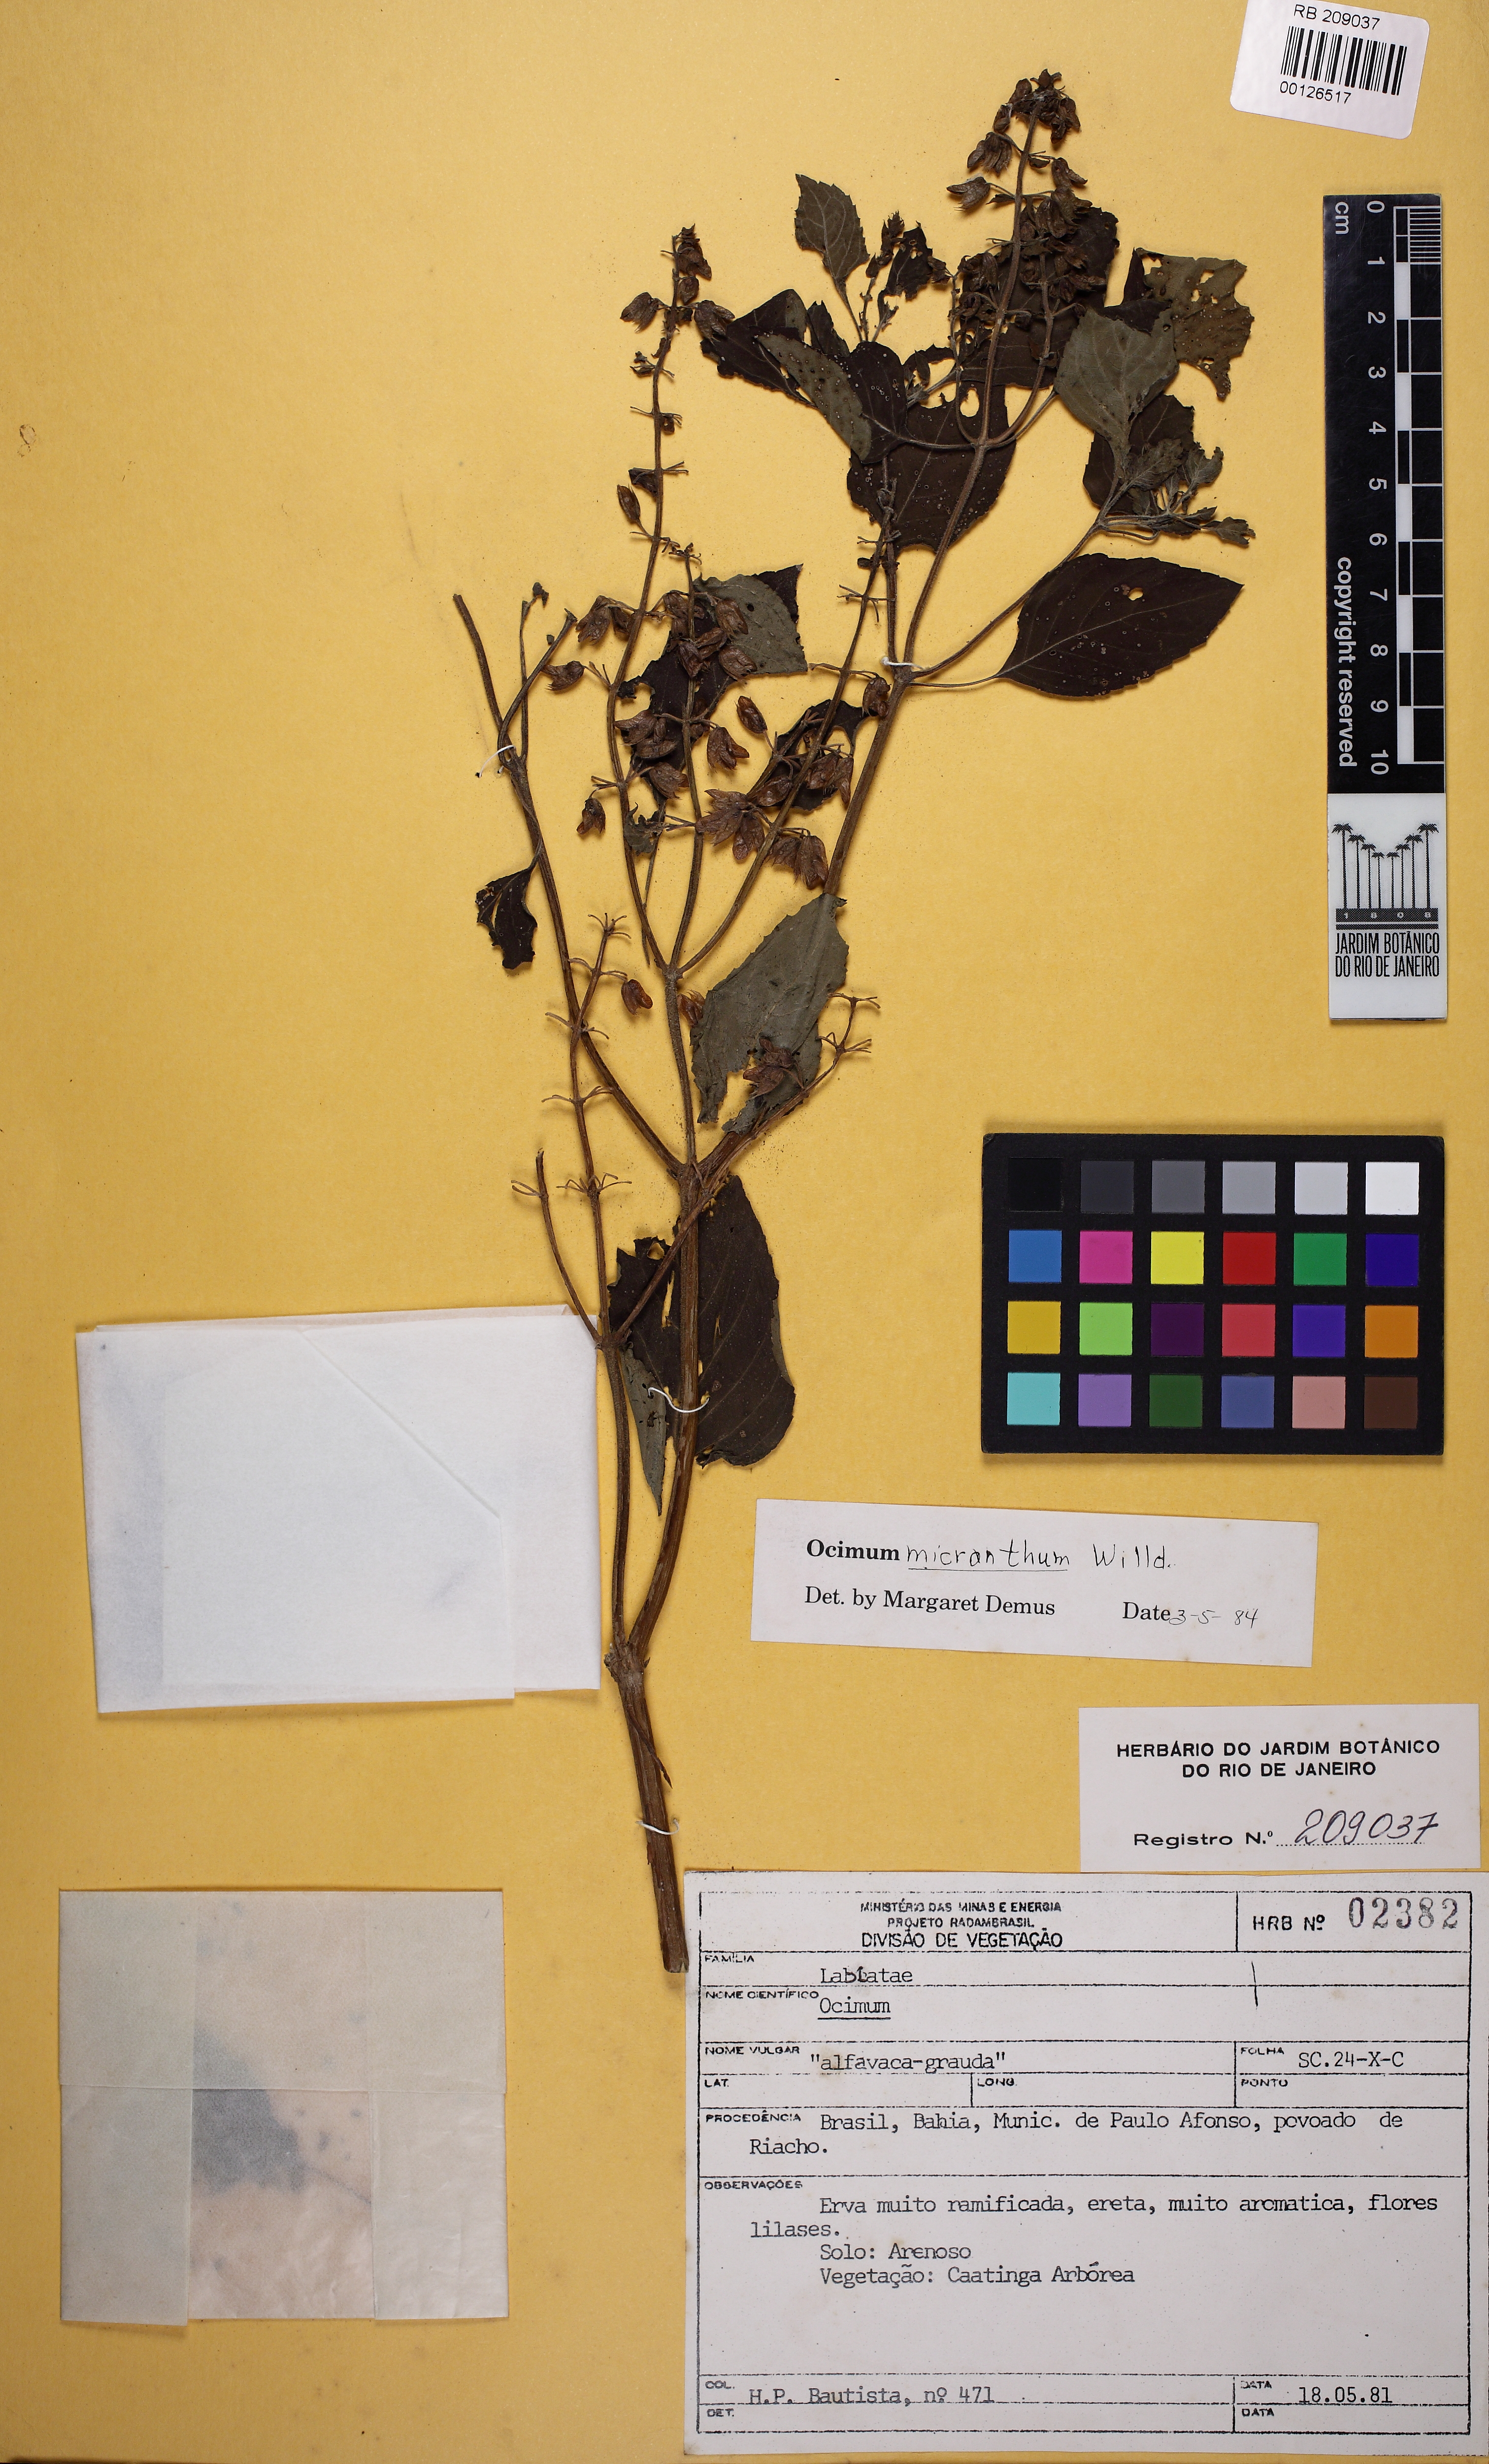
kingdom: Plantae
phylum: Tracheophyta
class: Magnoliopsida
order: Lamiales
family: Lamiaceae
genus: Ocimum
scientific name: Ocimum campechianum
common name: Mosquito basil
